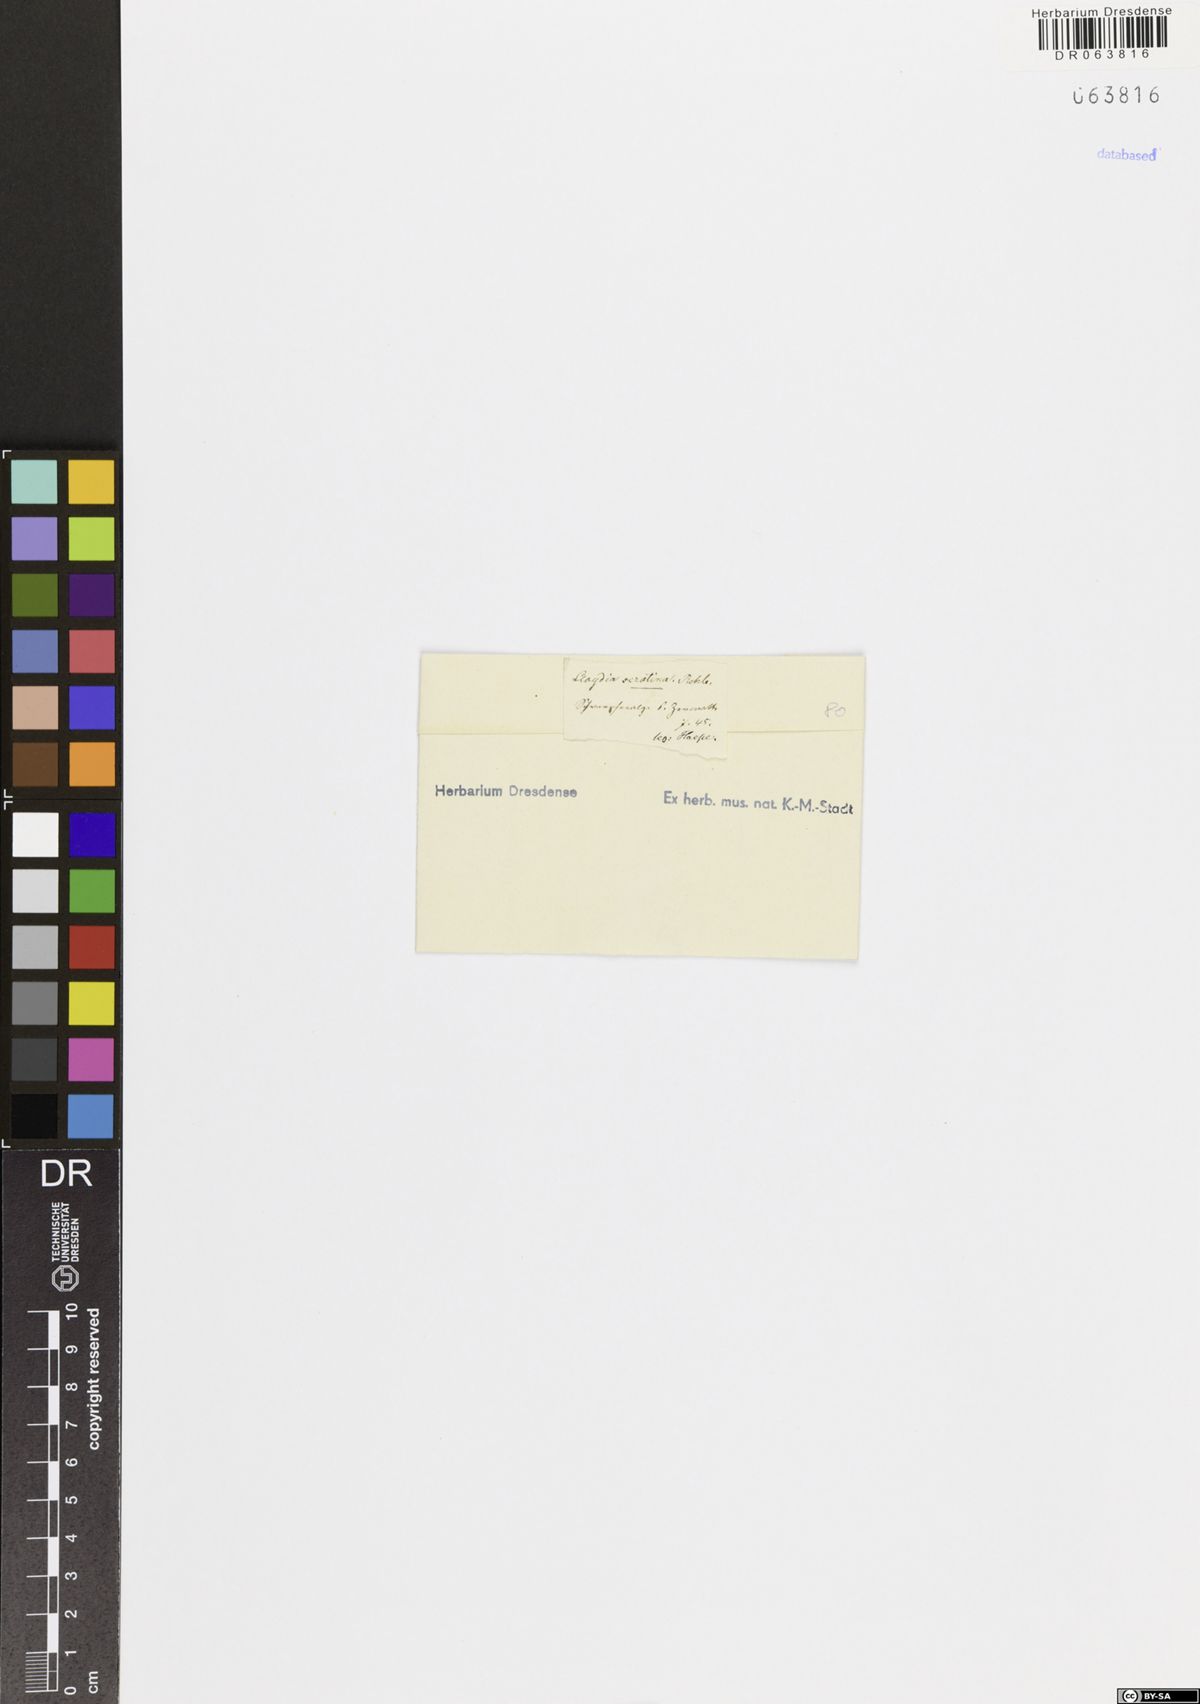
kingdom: Plantae
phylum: Tracheophyta
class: Liliopsida
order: Liliales
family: Liliaceae
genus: Gagea
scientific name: Gagea serotina
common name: Snowdon lily
